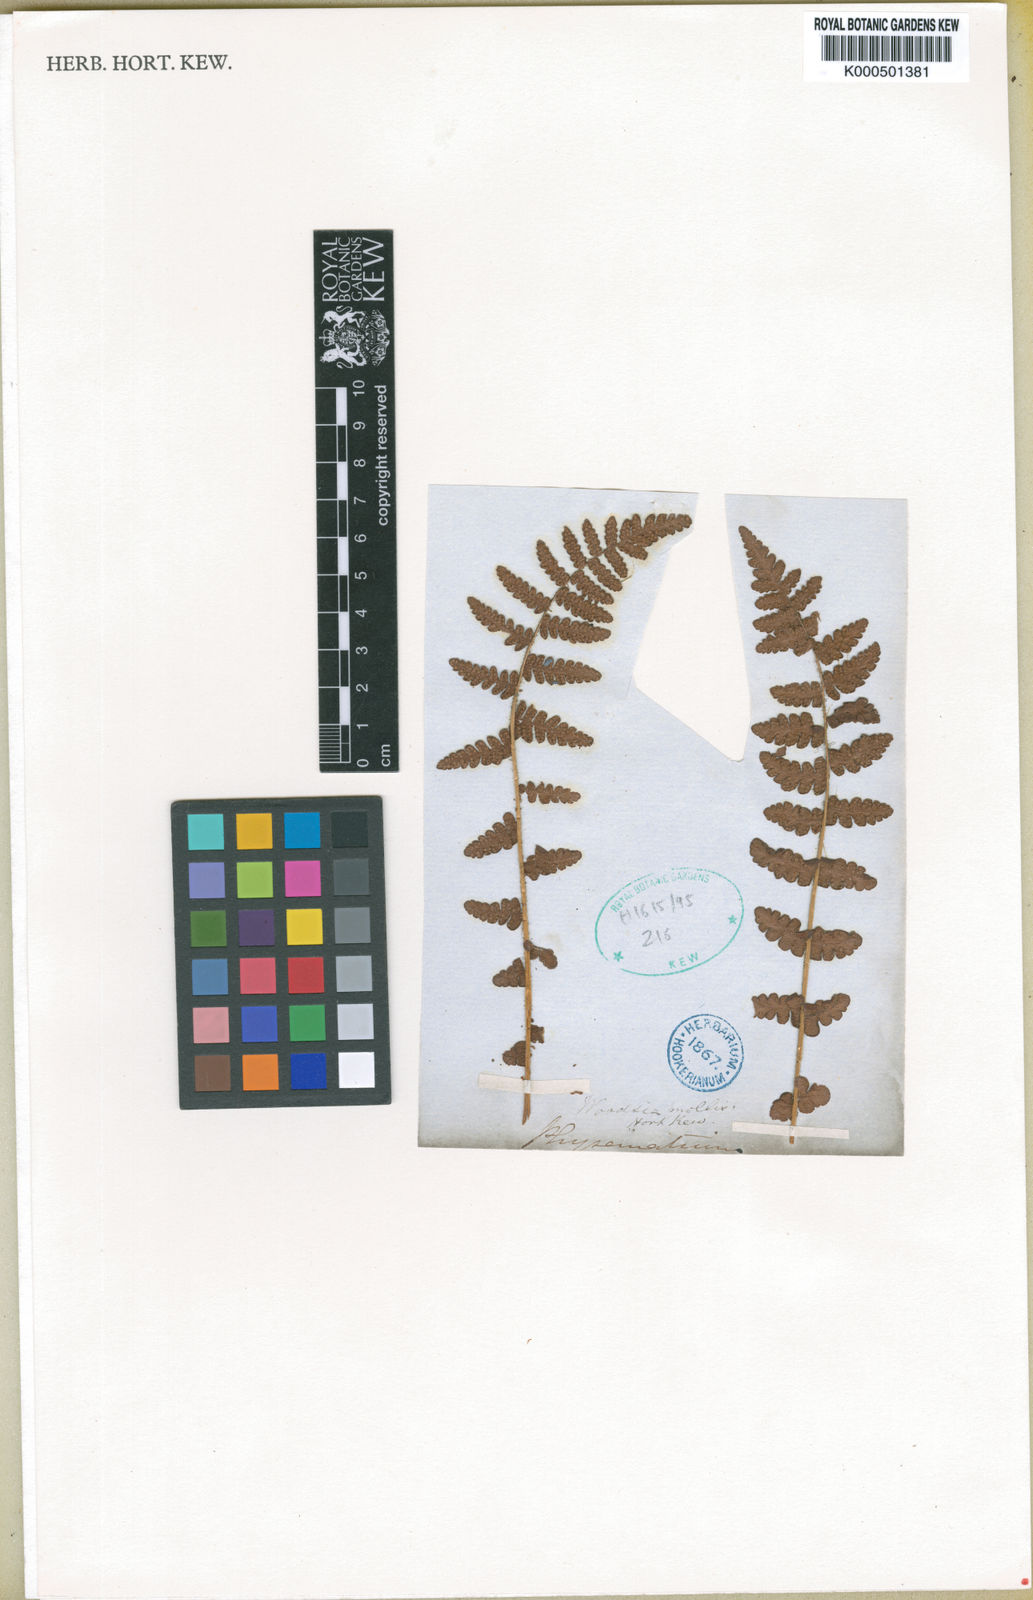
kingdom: Plantae
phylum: Tracheophyta
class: Polypodiopsida
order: Polypodiales
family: Woodsiaceae
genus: Physematium
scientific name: Physematium molle
